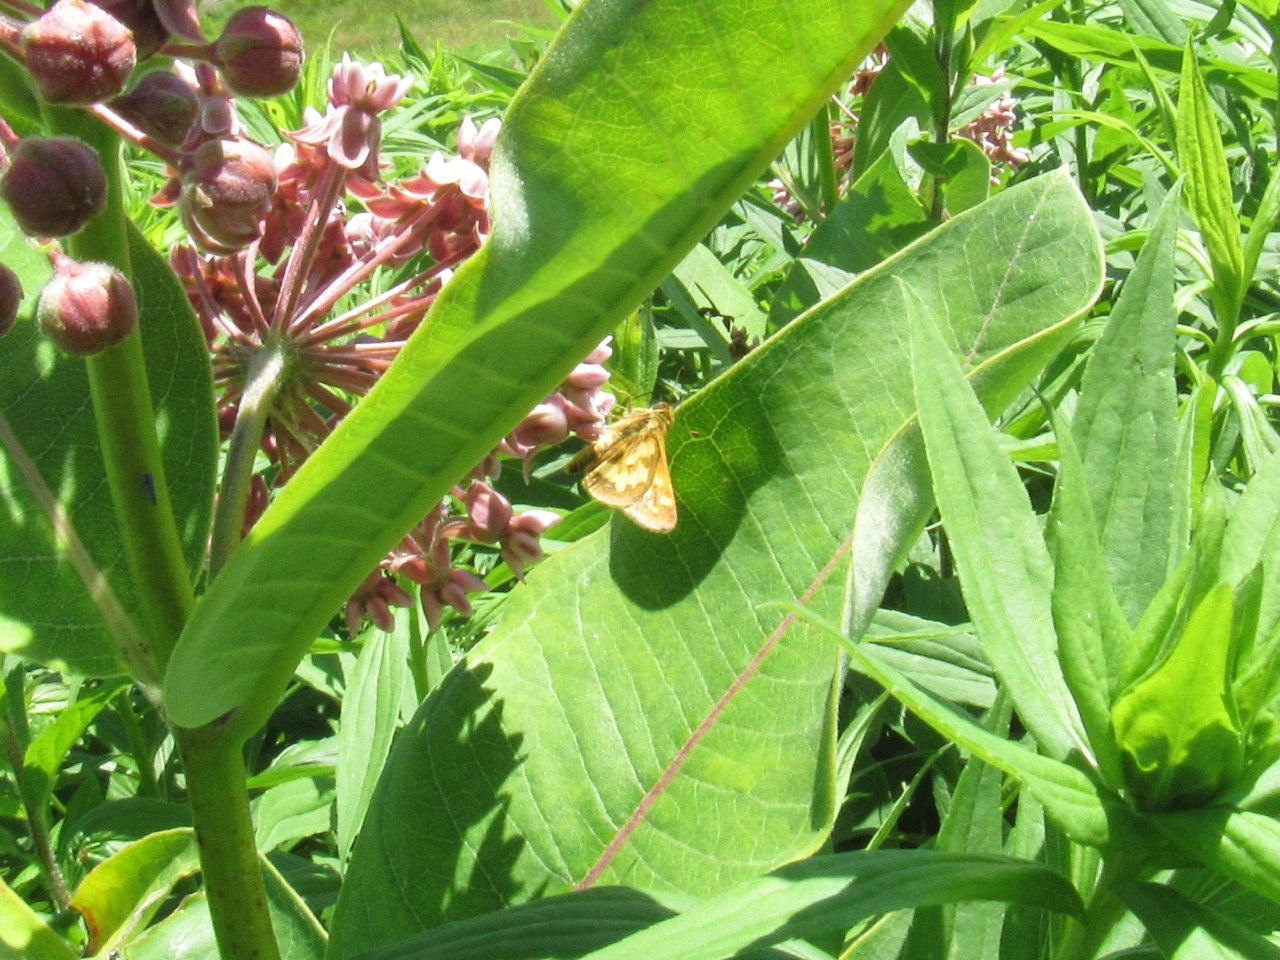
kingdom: Animalia
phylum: Arthropoda
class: Insecta
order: Lepidoptera
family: Hesperiidae
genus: Polites
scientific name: Polites coras
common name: Peck's Skipper
